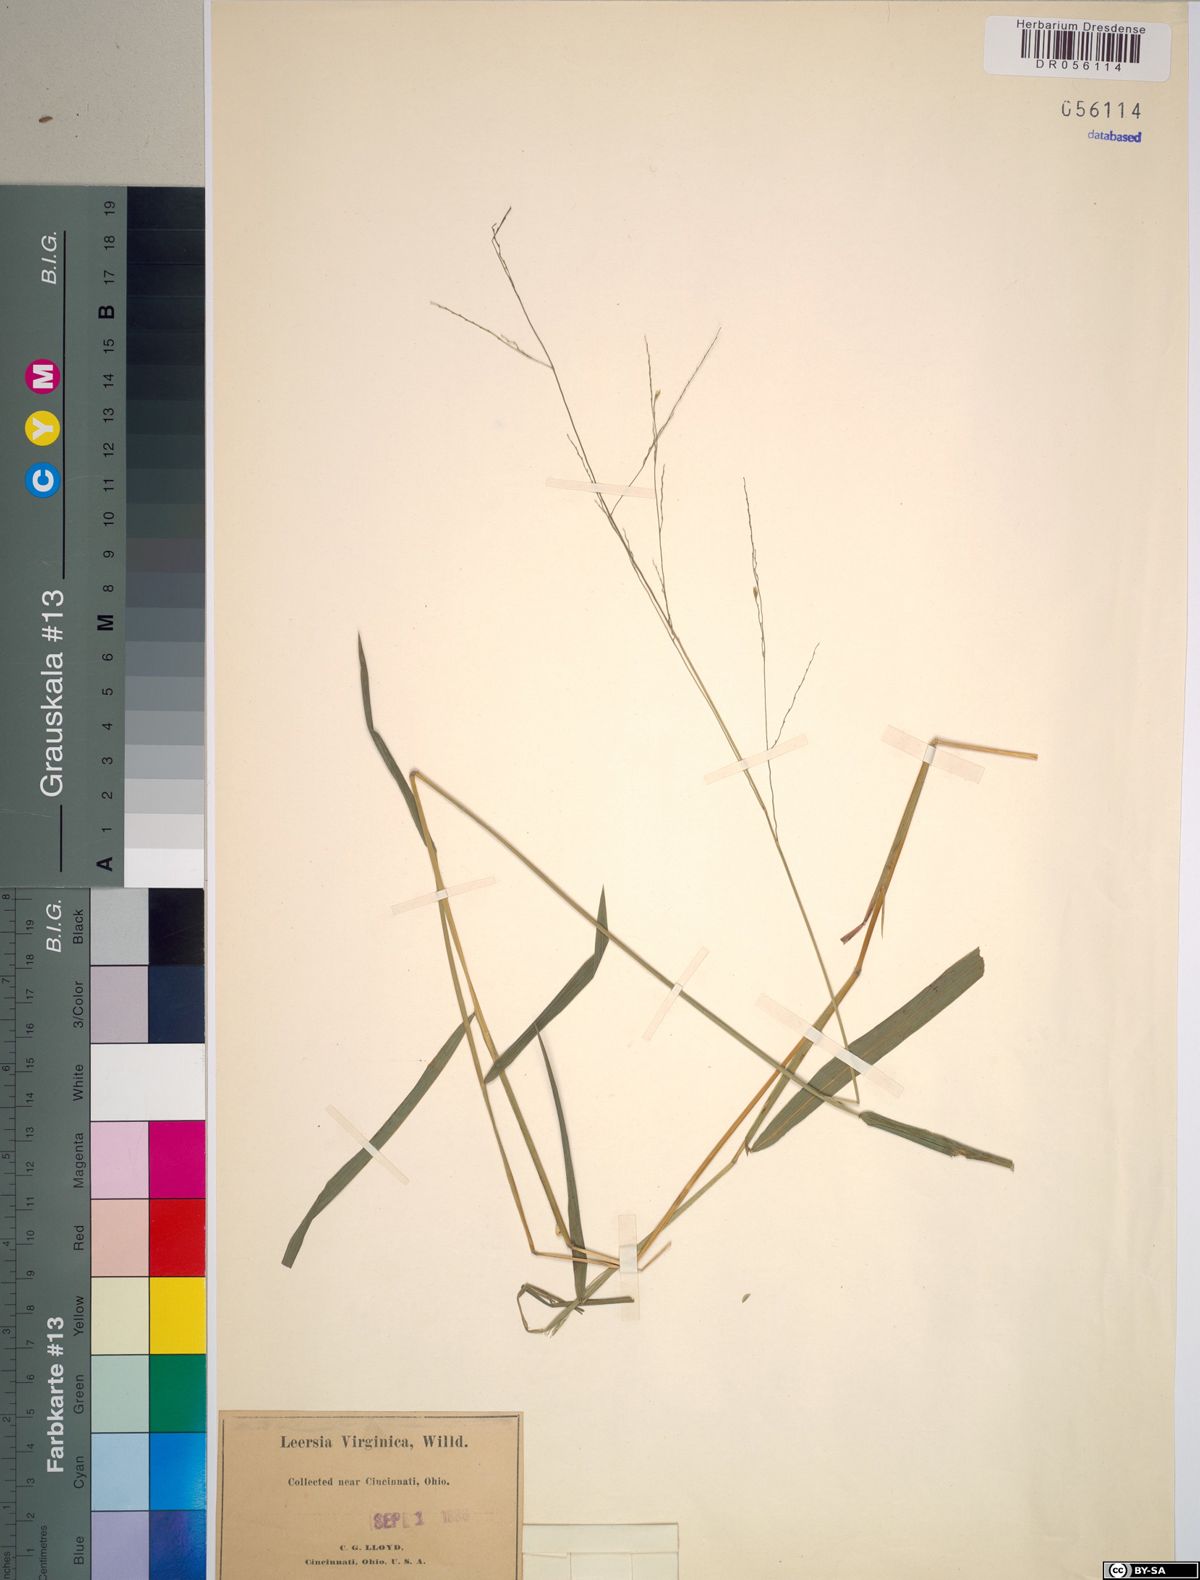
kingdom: Plantae
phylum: Tracheophyta
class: Liliopsida
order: Poales
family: Poaceae
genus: Leersia
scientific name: Leersia virginica
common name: White cutgrass
